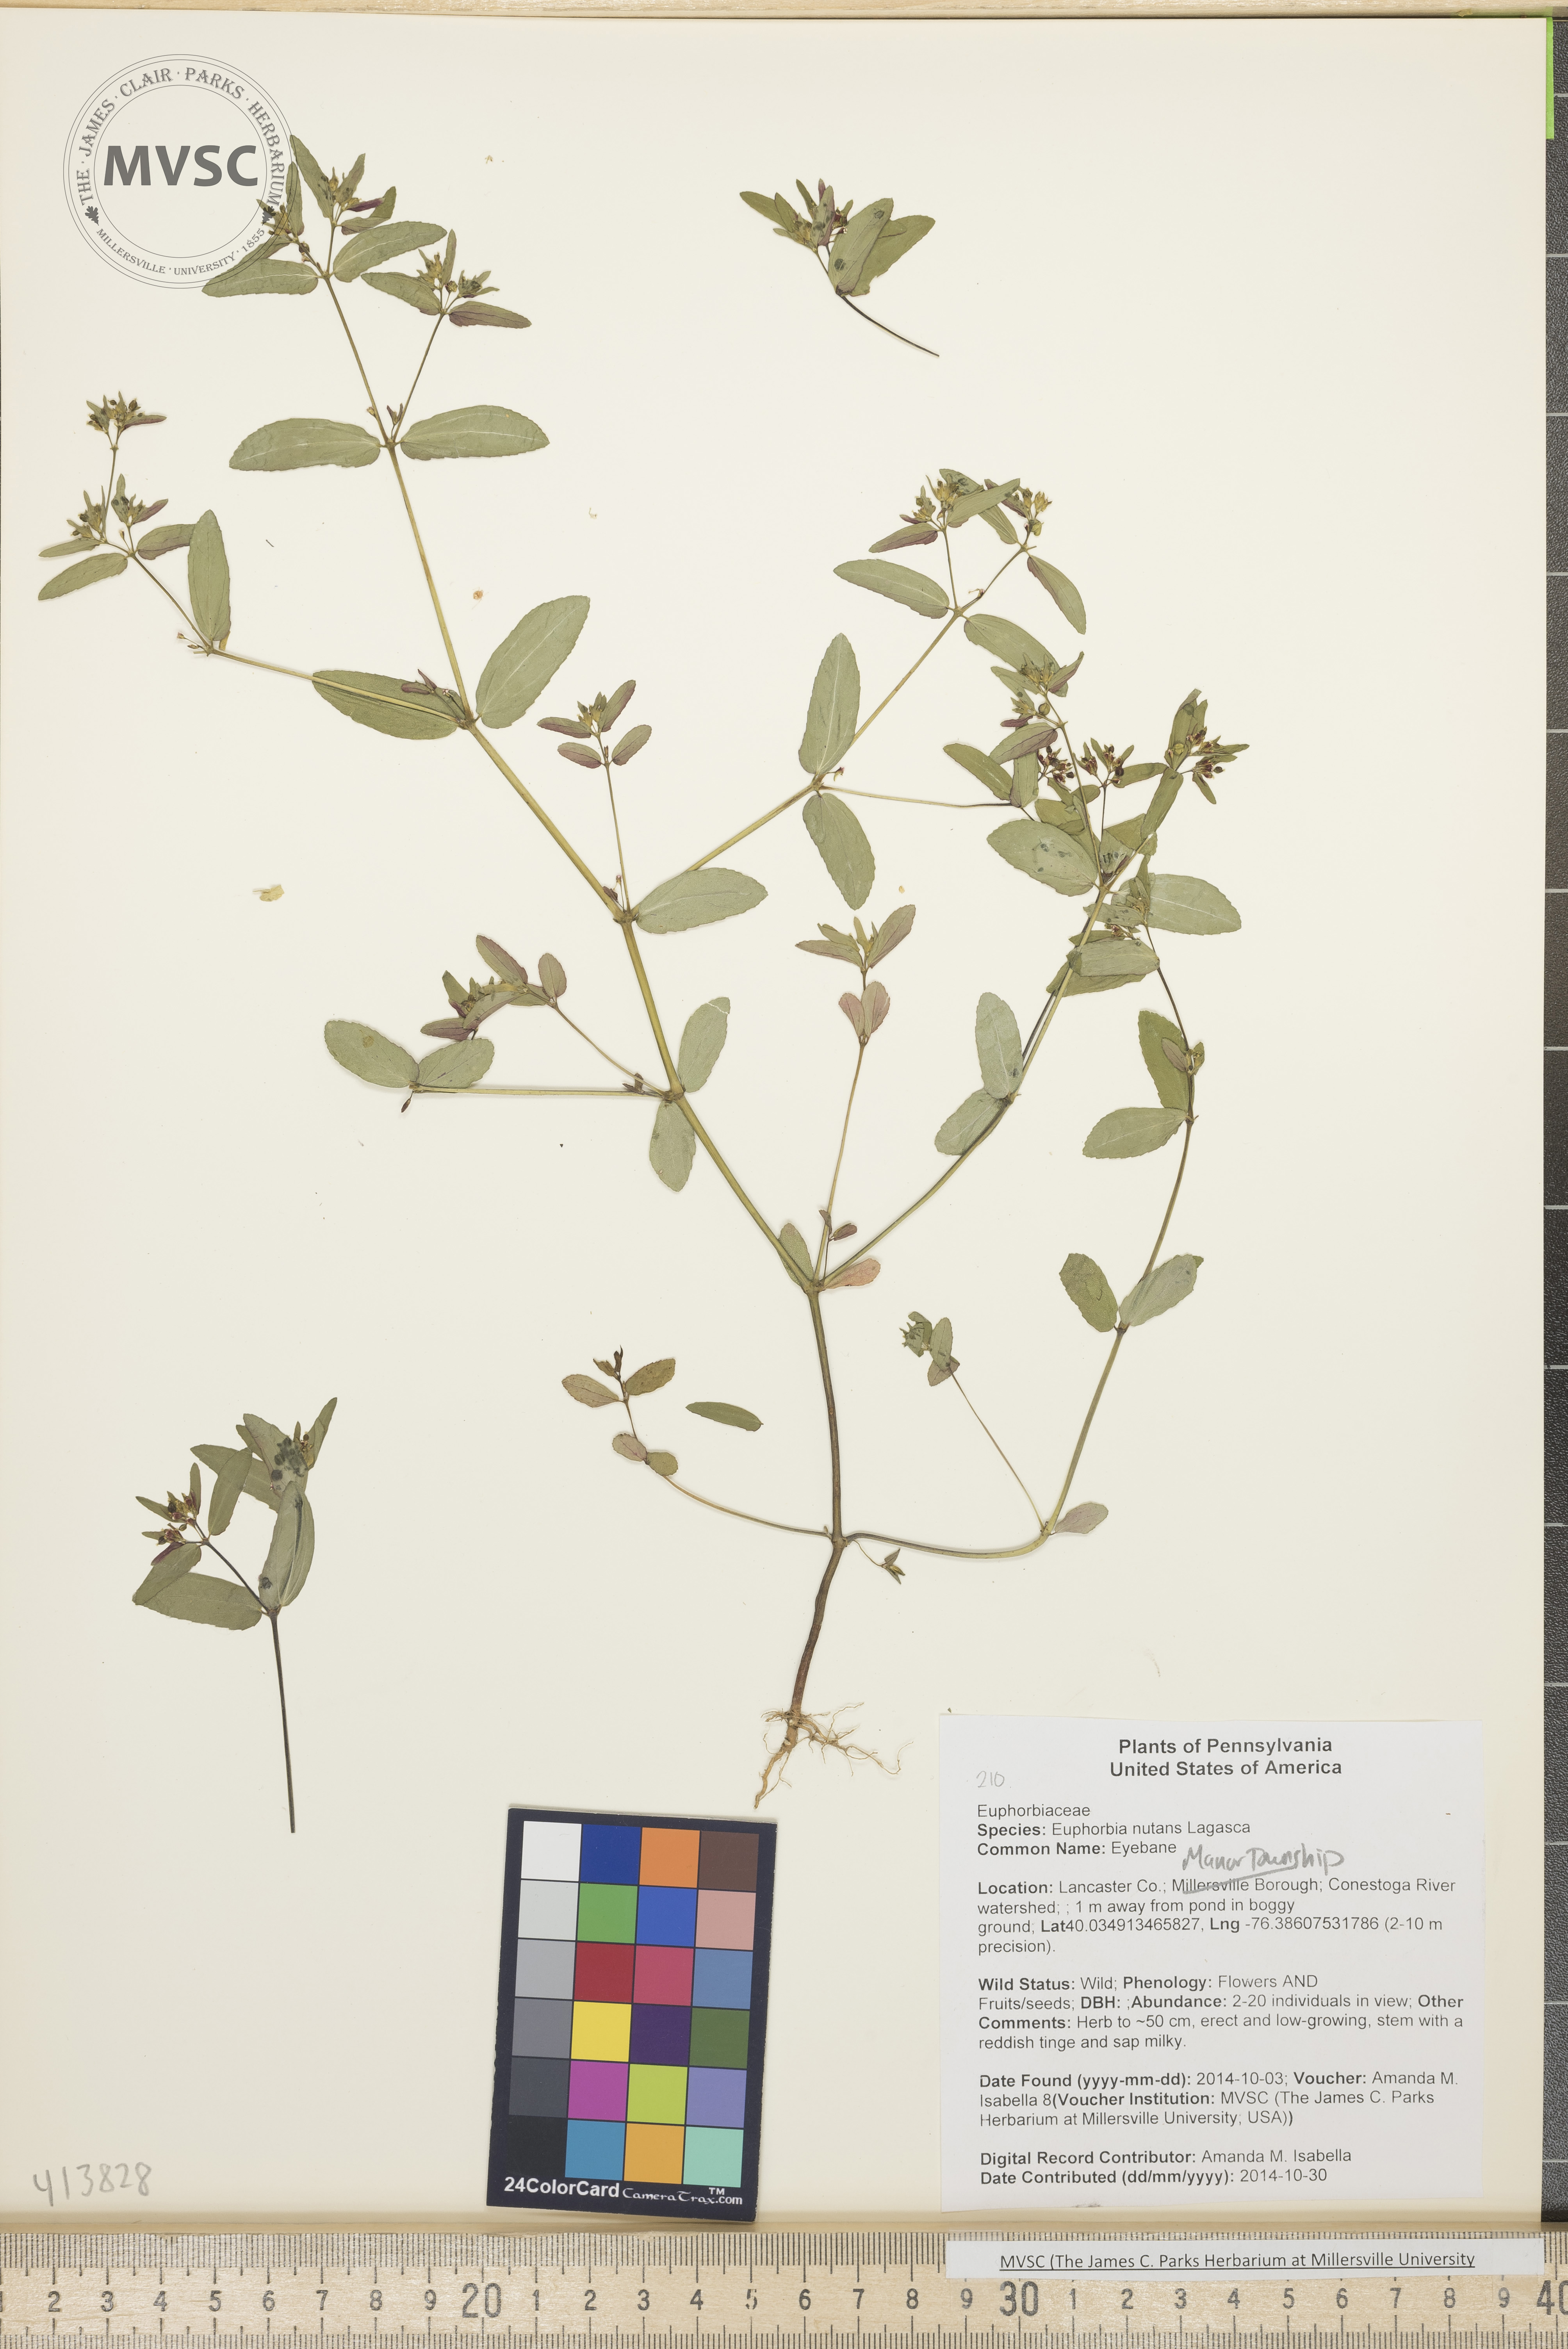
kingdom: Plantae
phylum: Tracheophyta
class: Magnoliopsida
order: Malpighiales
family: Euphorbiaceae
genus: Euphorbia
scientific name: Euphorbia nutans
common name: Eyebane
